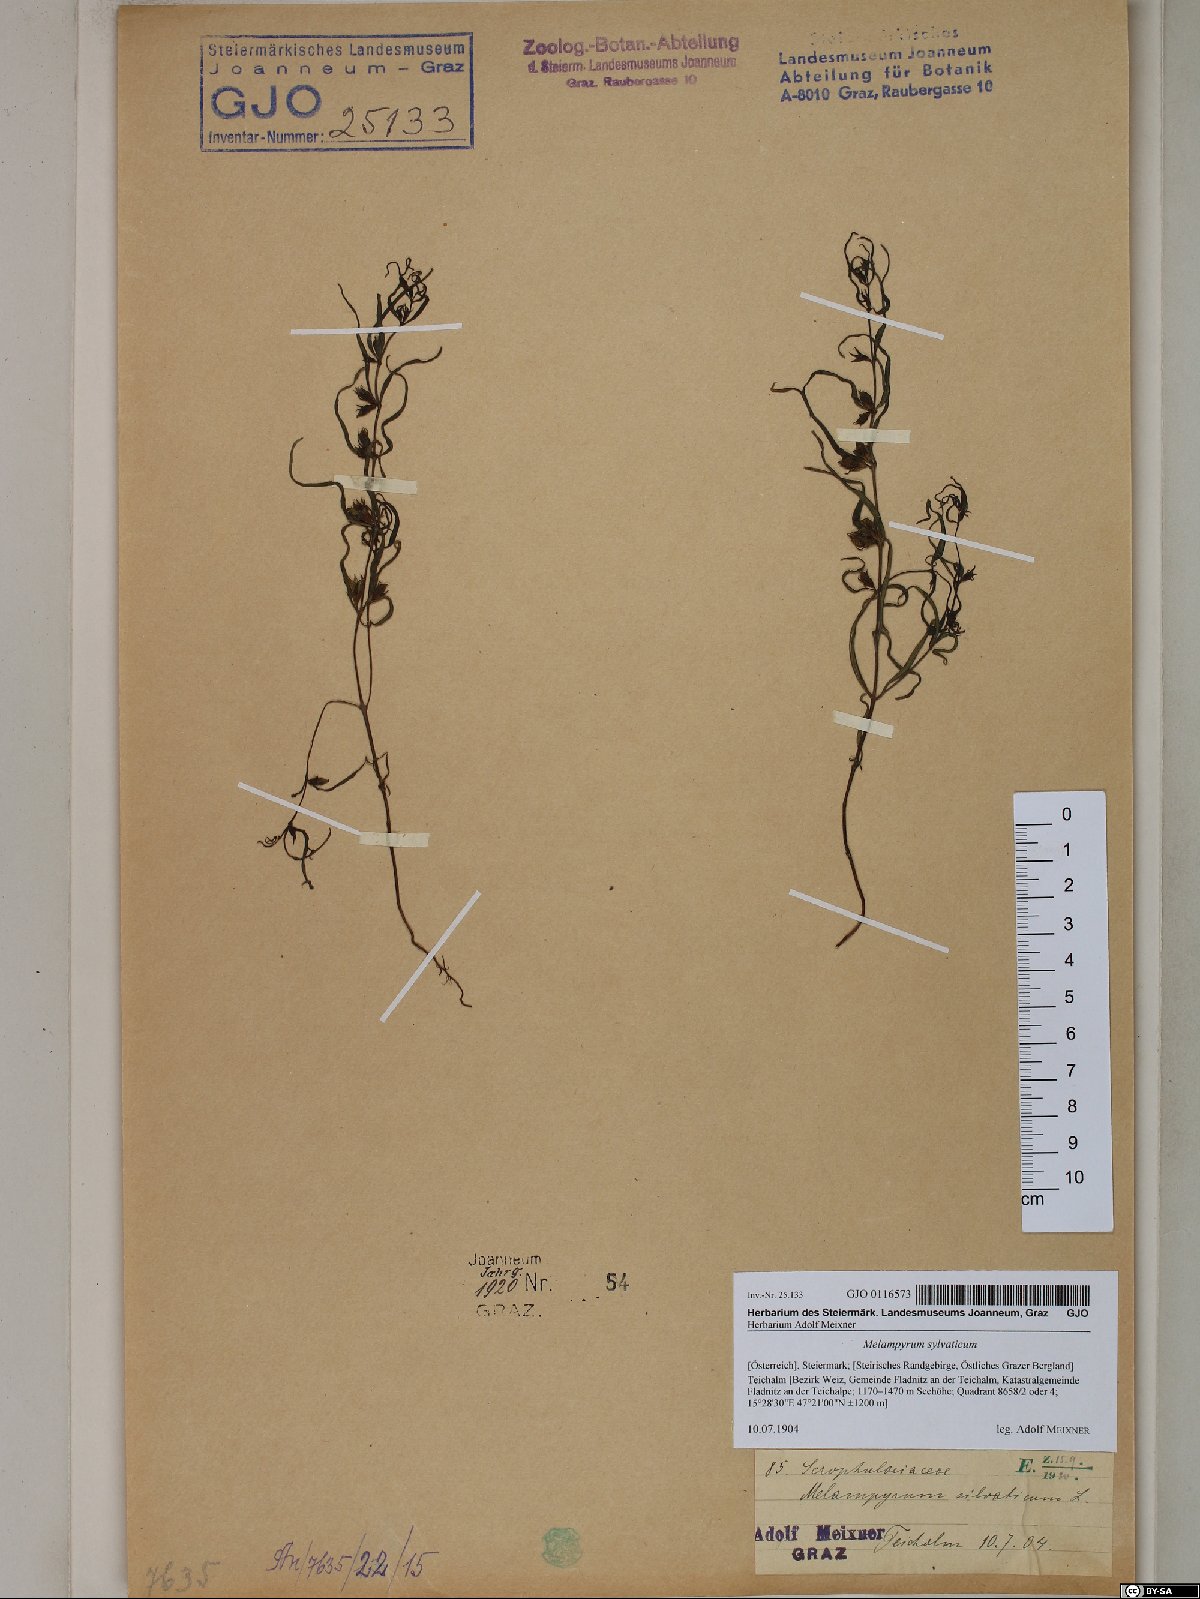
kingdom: Plantae
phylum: Tracheophyta
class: Magnoliopsida
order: Lamiales
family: Orobanchaceae
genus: Melampyrum
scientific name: Melampyrum sylvaticum
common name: Small cow-wheat
